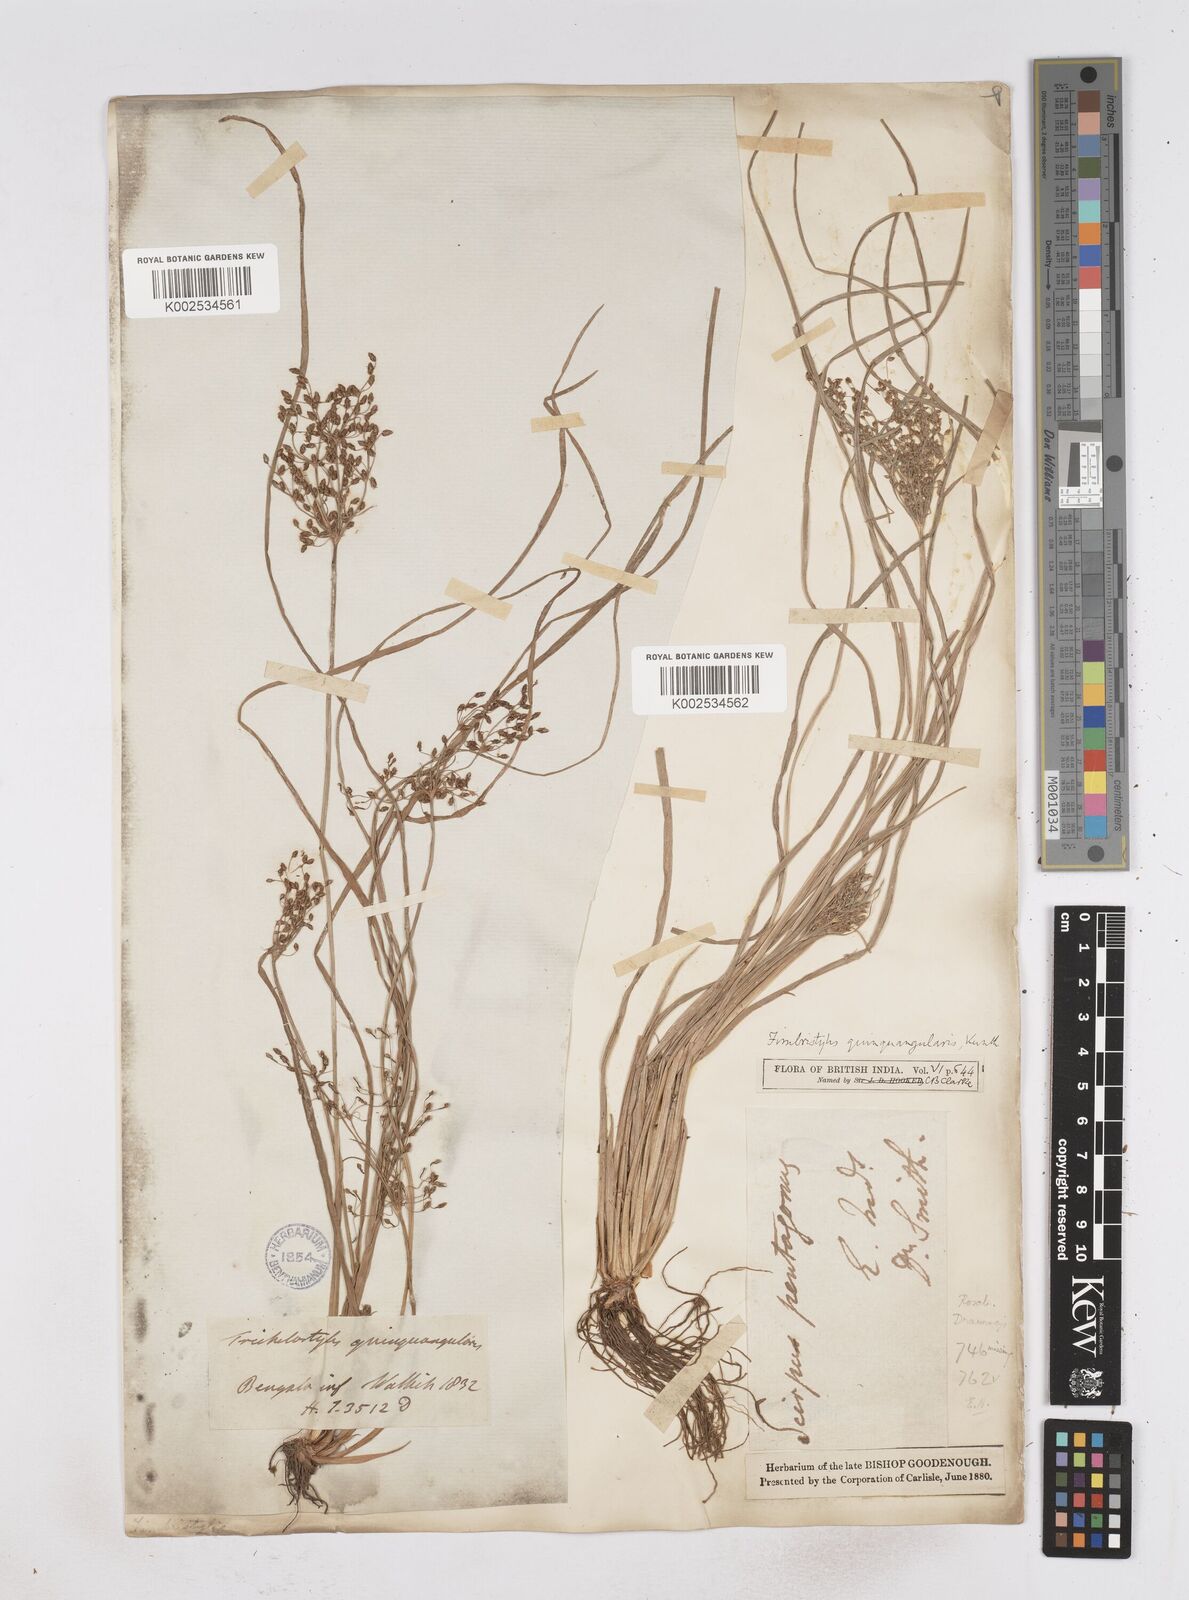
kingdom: Plantae
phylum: Tracheophyta
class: Liliopsida
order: Poales
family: Cyperaceae
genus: Fimbristylis
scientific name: Fimbristylis quinquangularis
